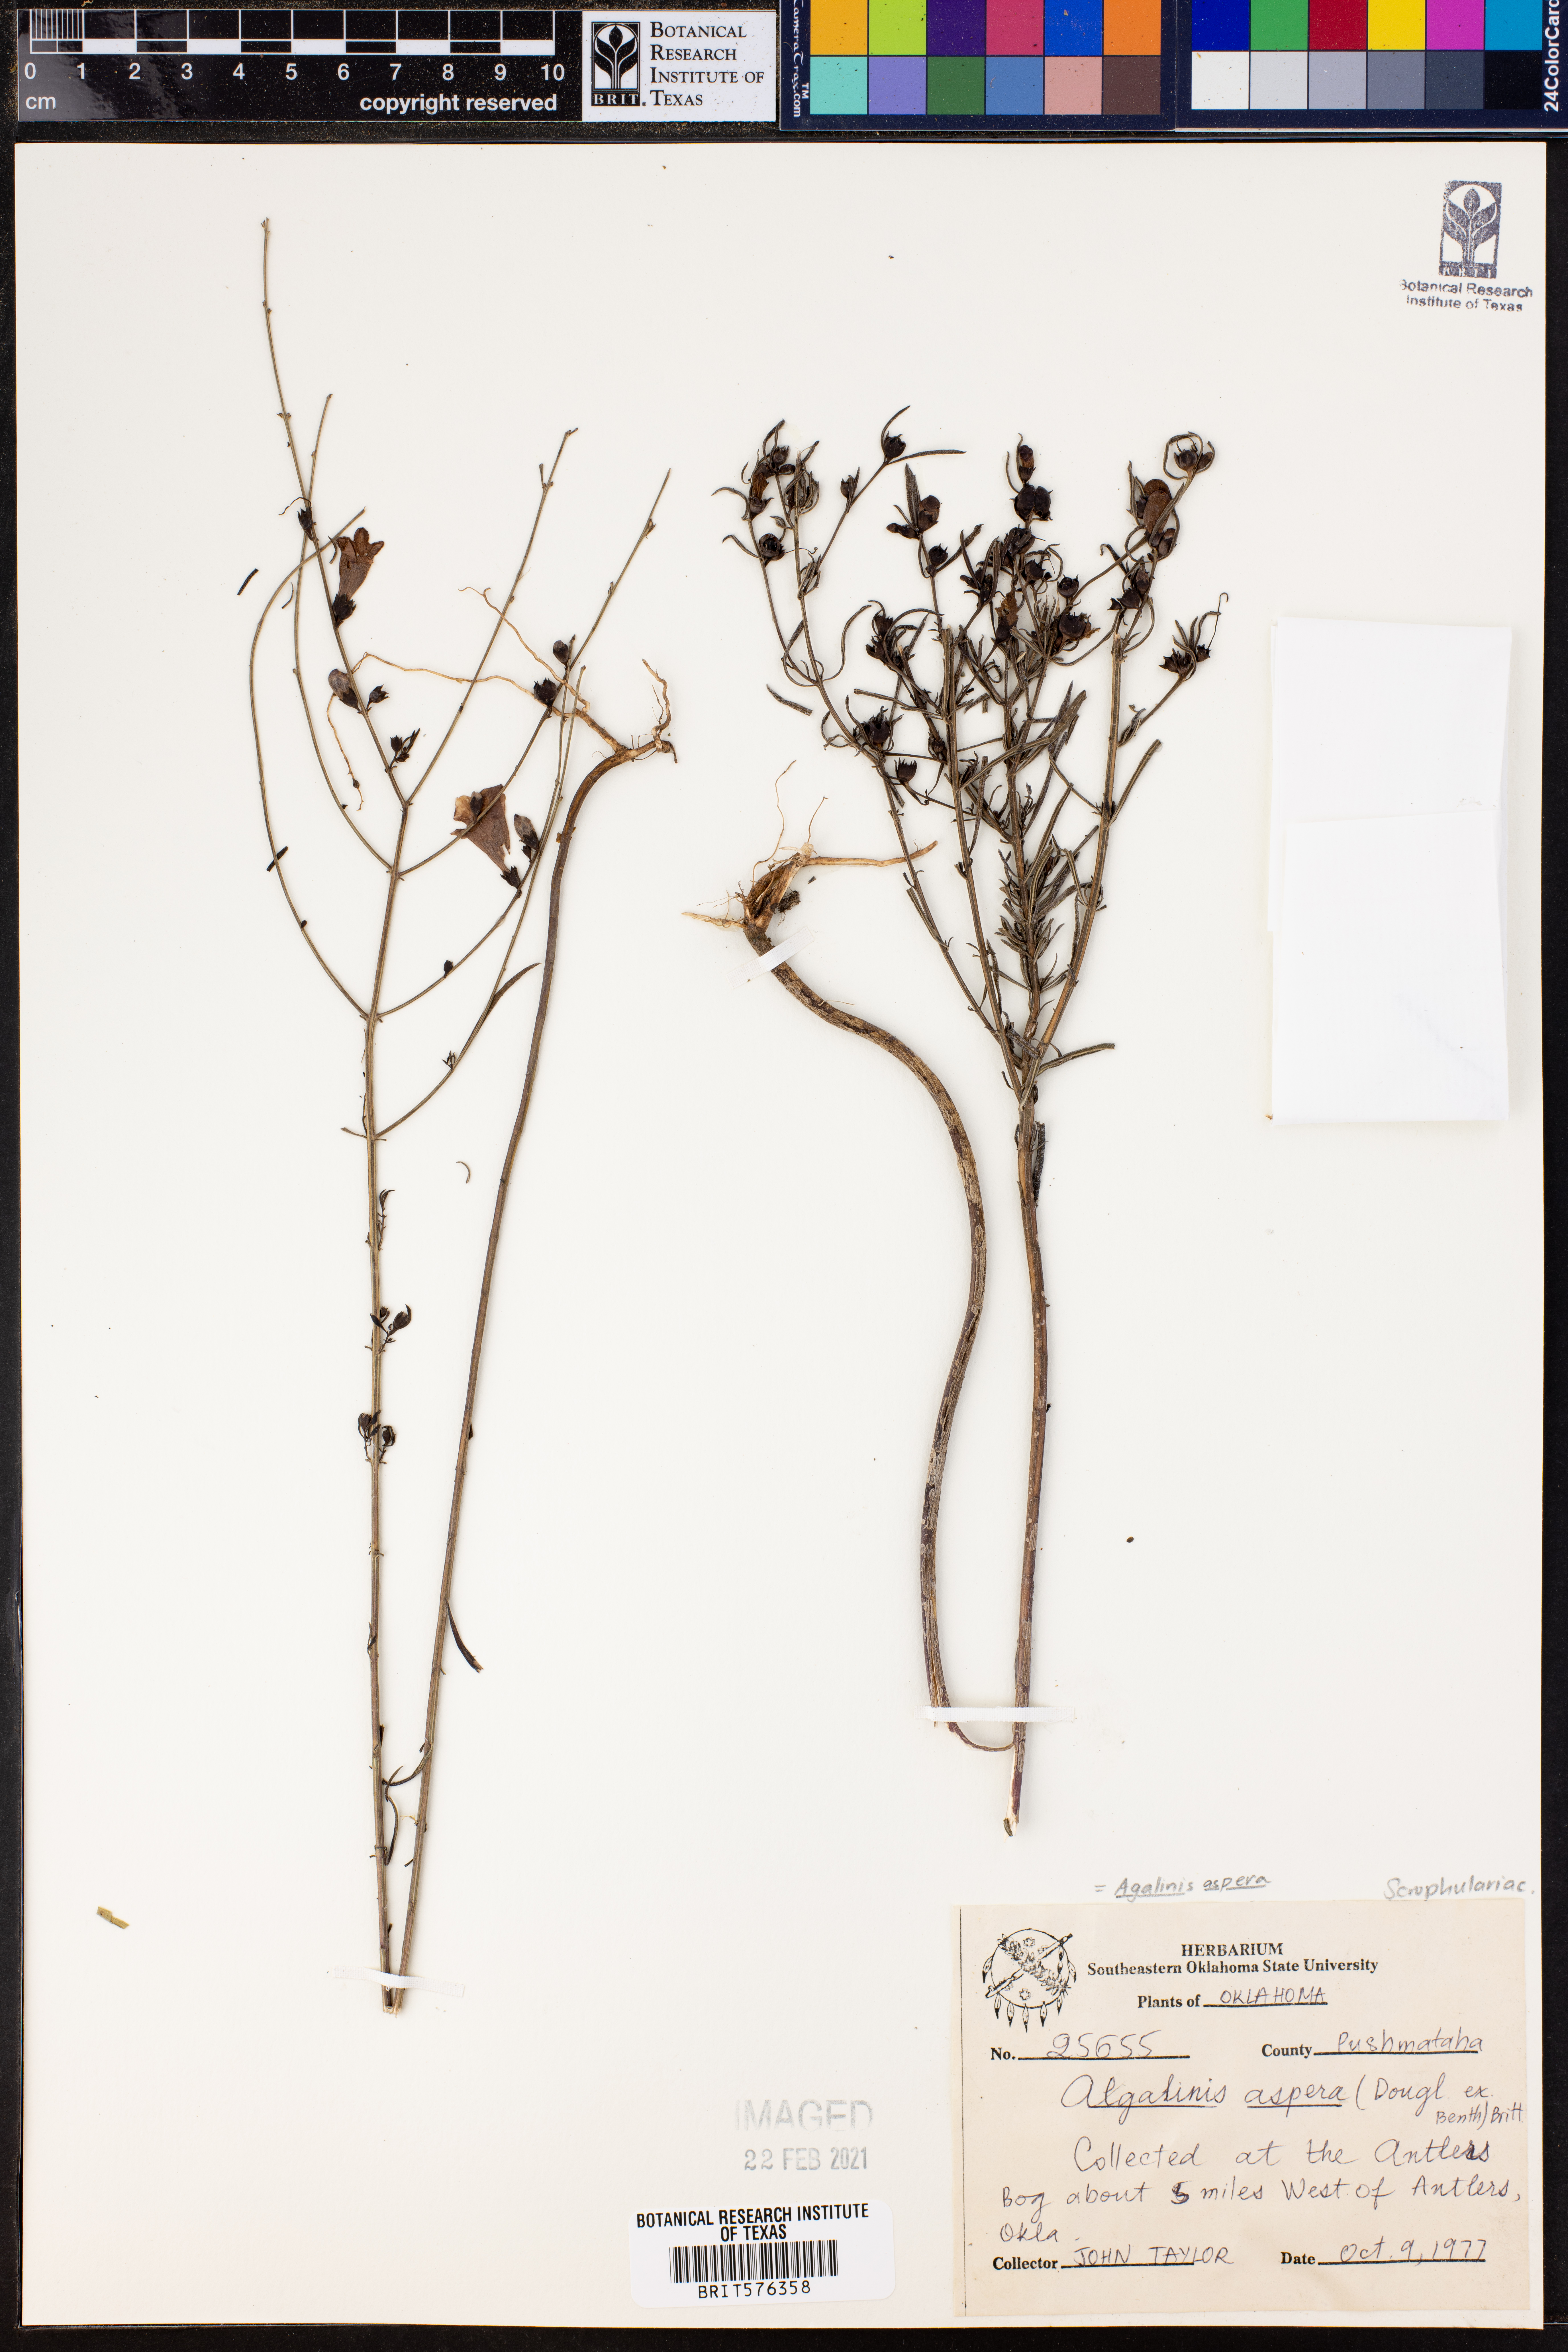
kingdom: Plantae
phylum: Tracheophyta
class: Magnoliopsida
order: Lamiales
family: Orobanchaceae
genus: Agalinis
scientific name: Agalinis aspera
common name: Rough agalinis
